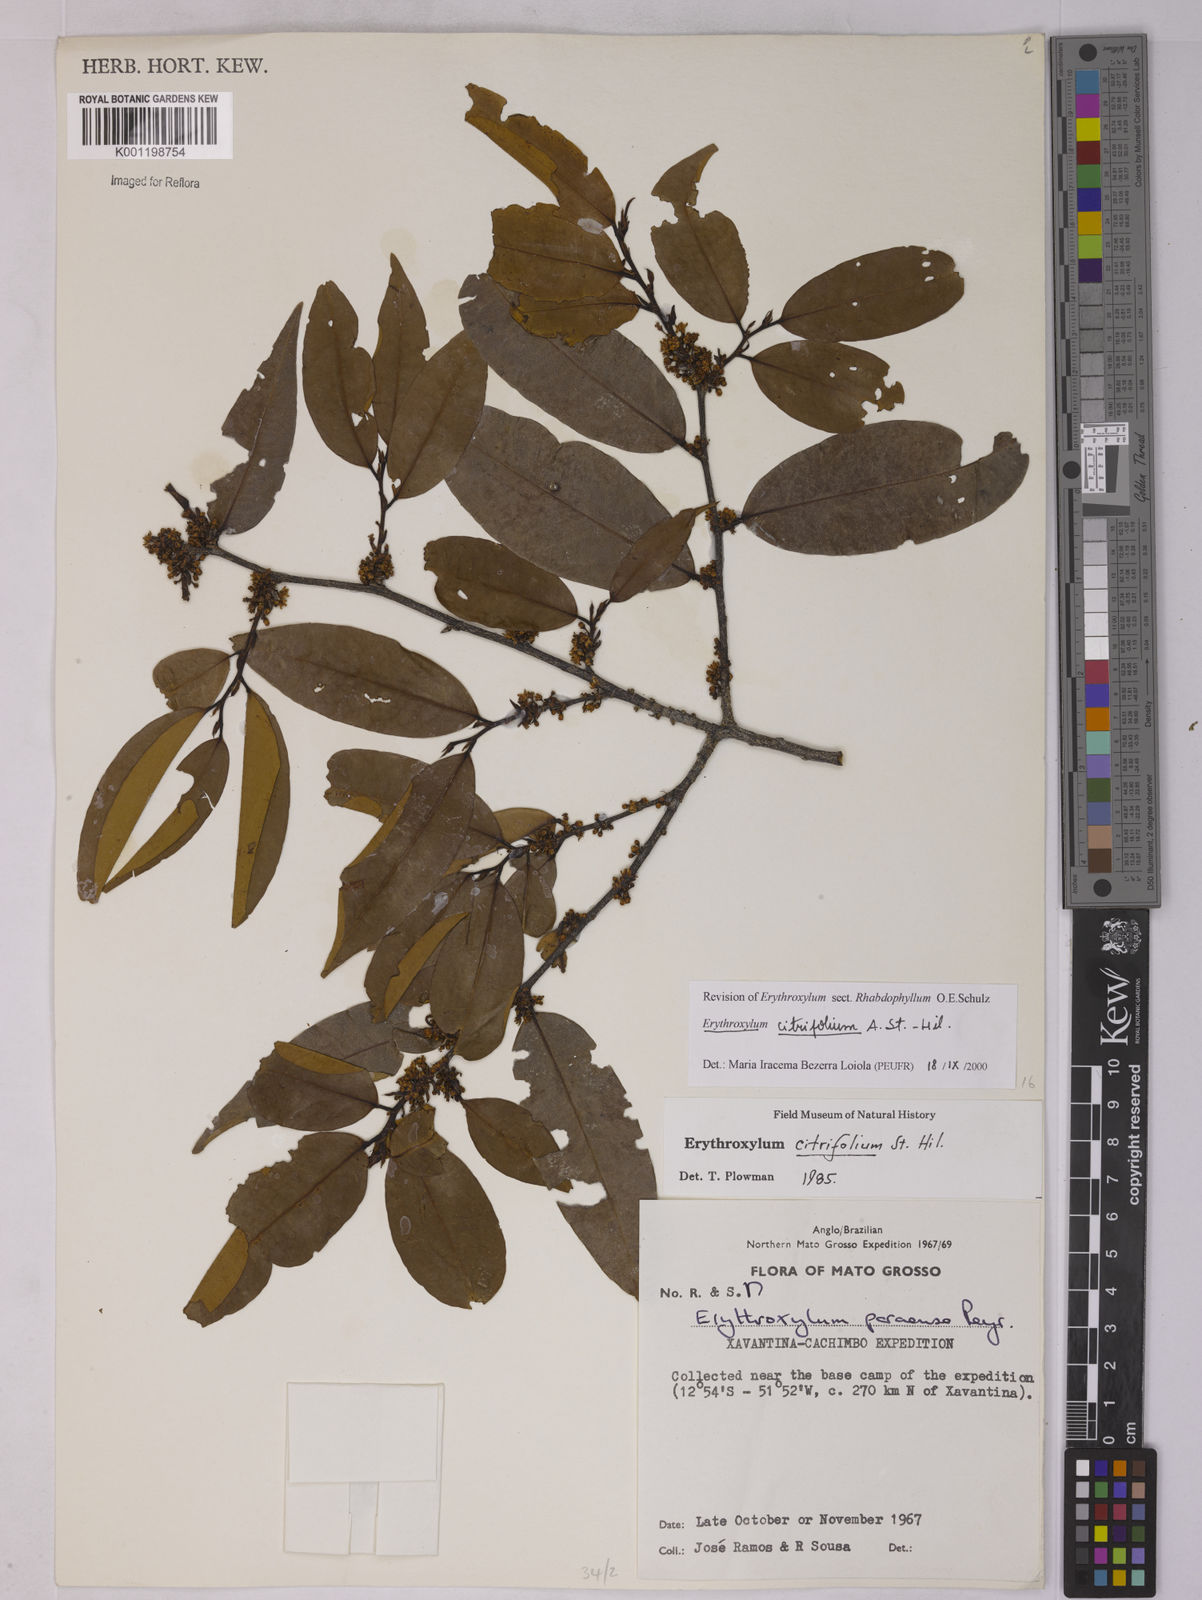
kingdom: Plantae
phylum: Tracheophyta
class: Magnoliopsida
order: Malpighiales
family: Erythroxylaceae
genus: Erythroxylum
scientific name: Erythroxylum citrifolium
